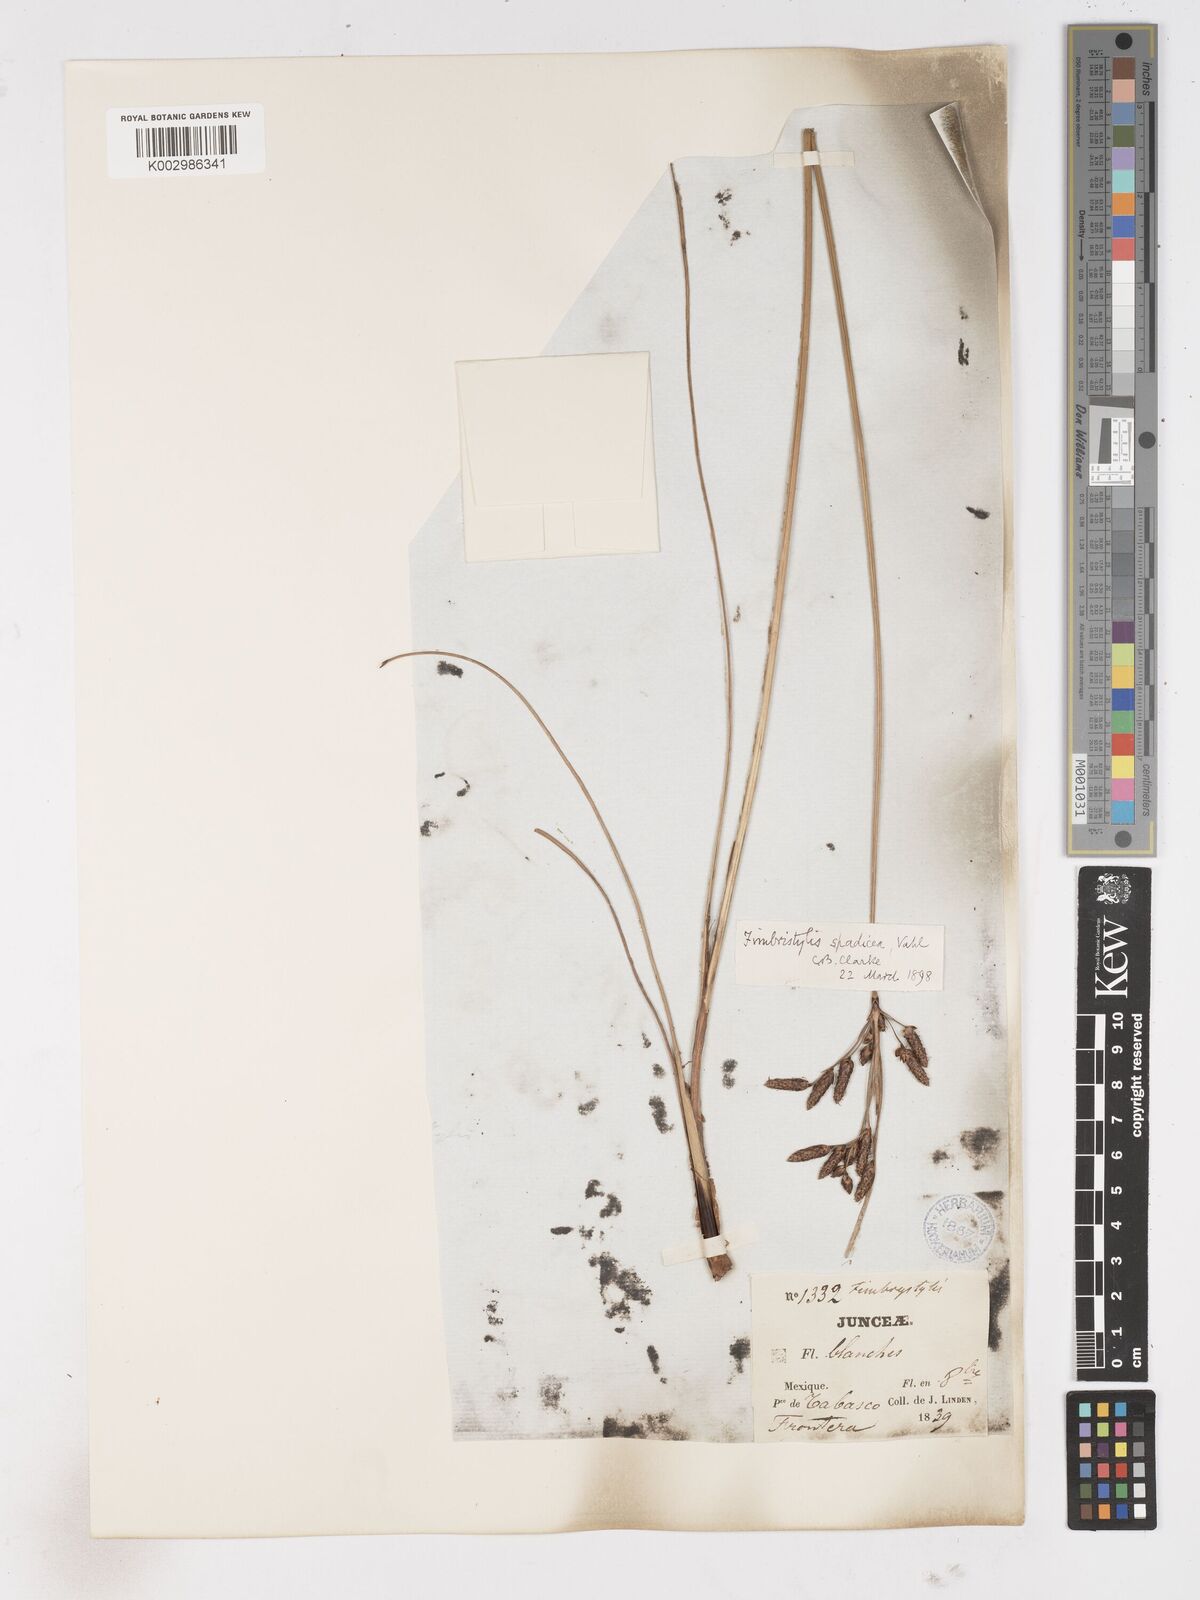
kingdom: Plantae
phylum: Tracheophyta
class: Liliopsida
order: Poales
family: Cyperaceae
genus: Fimbristylis
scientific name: Fimbristylis spadicea
